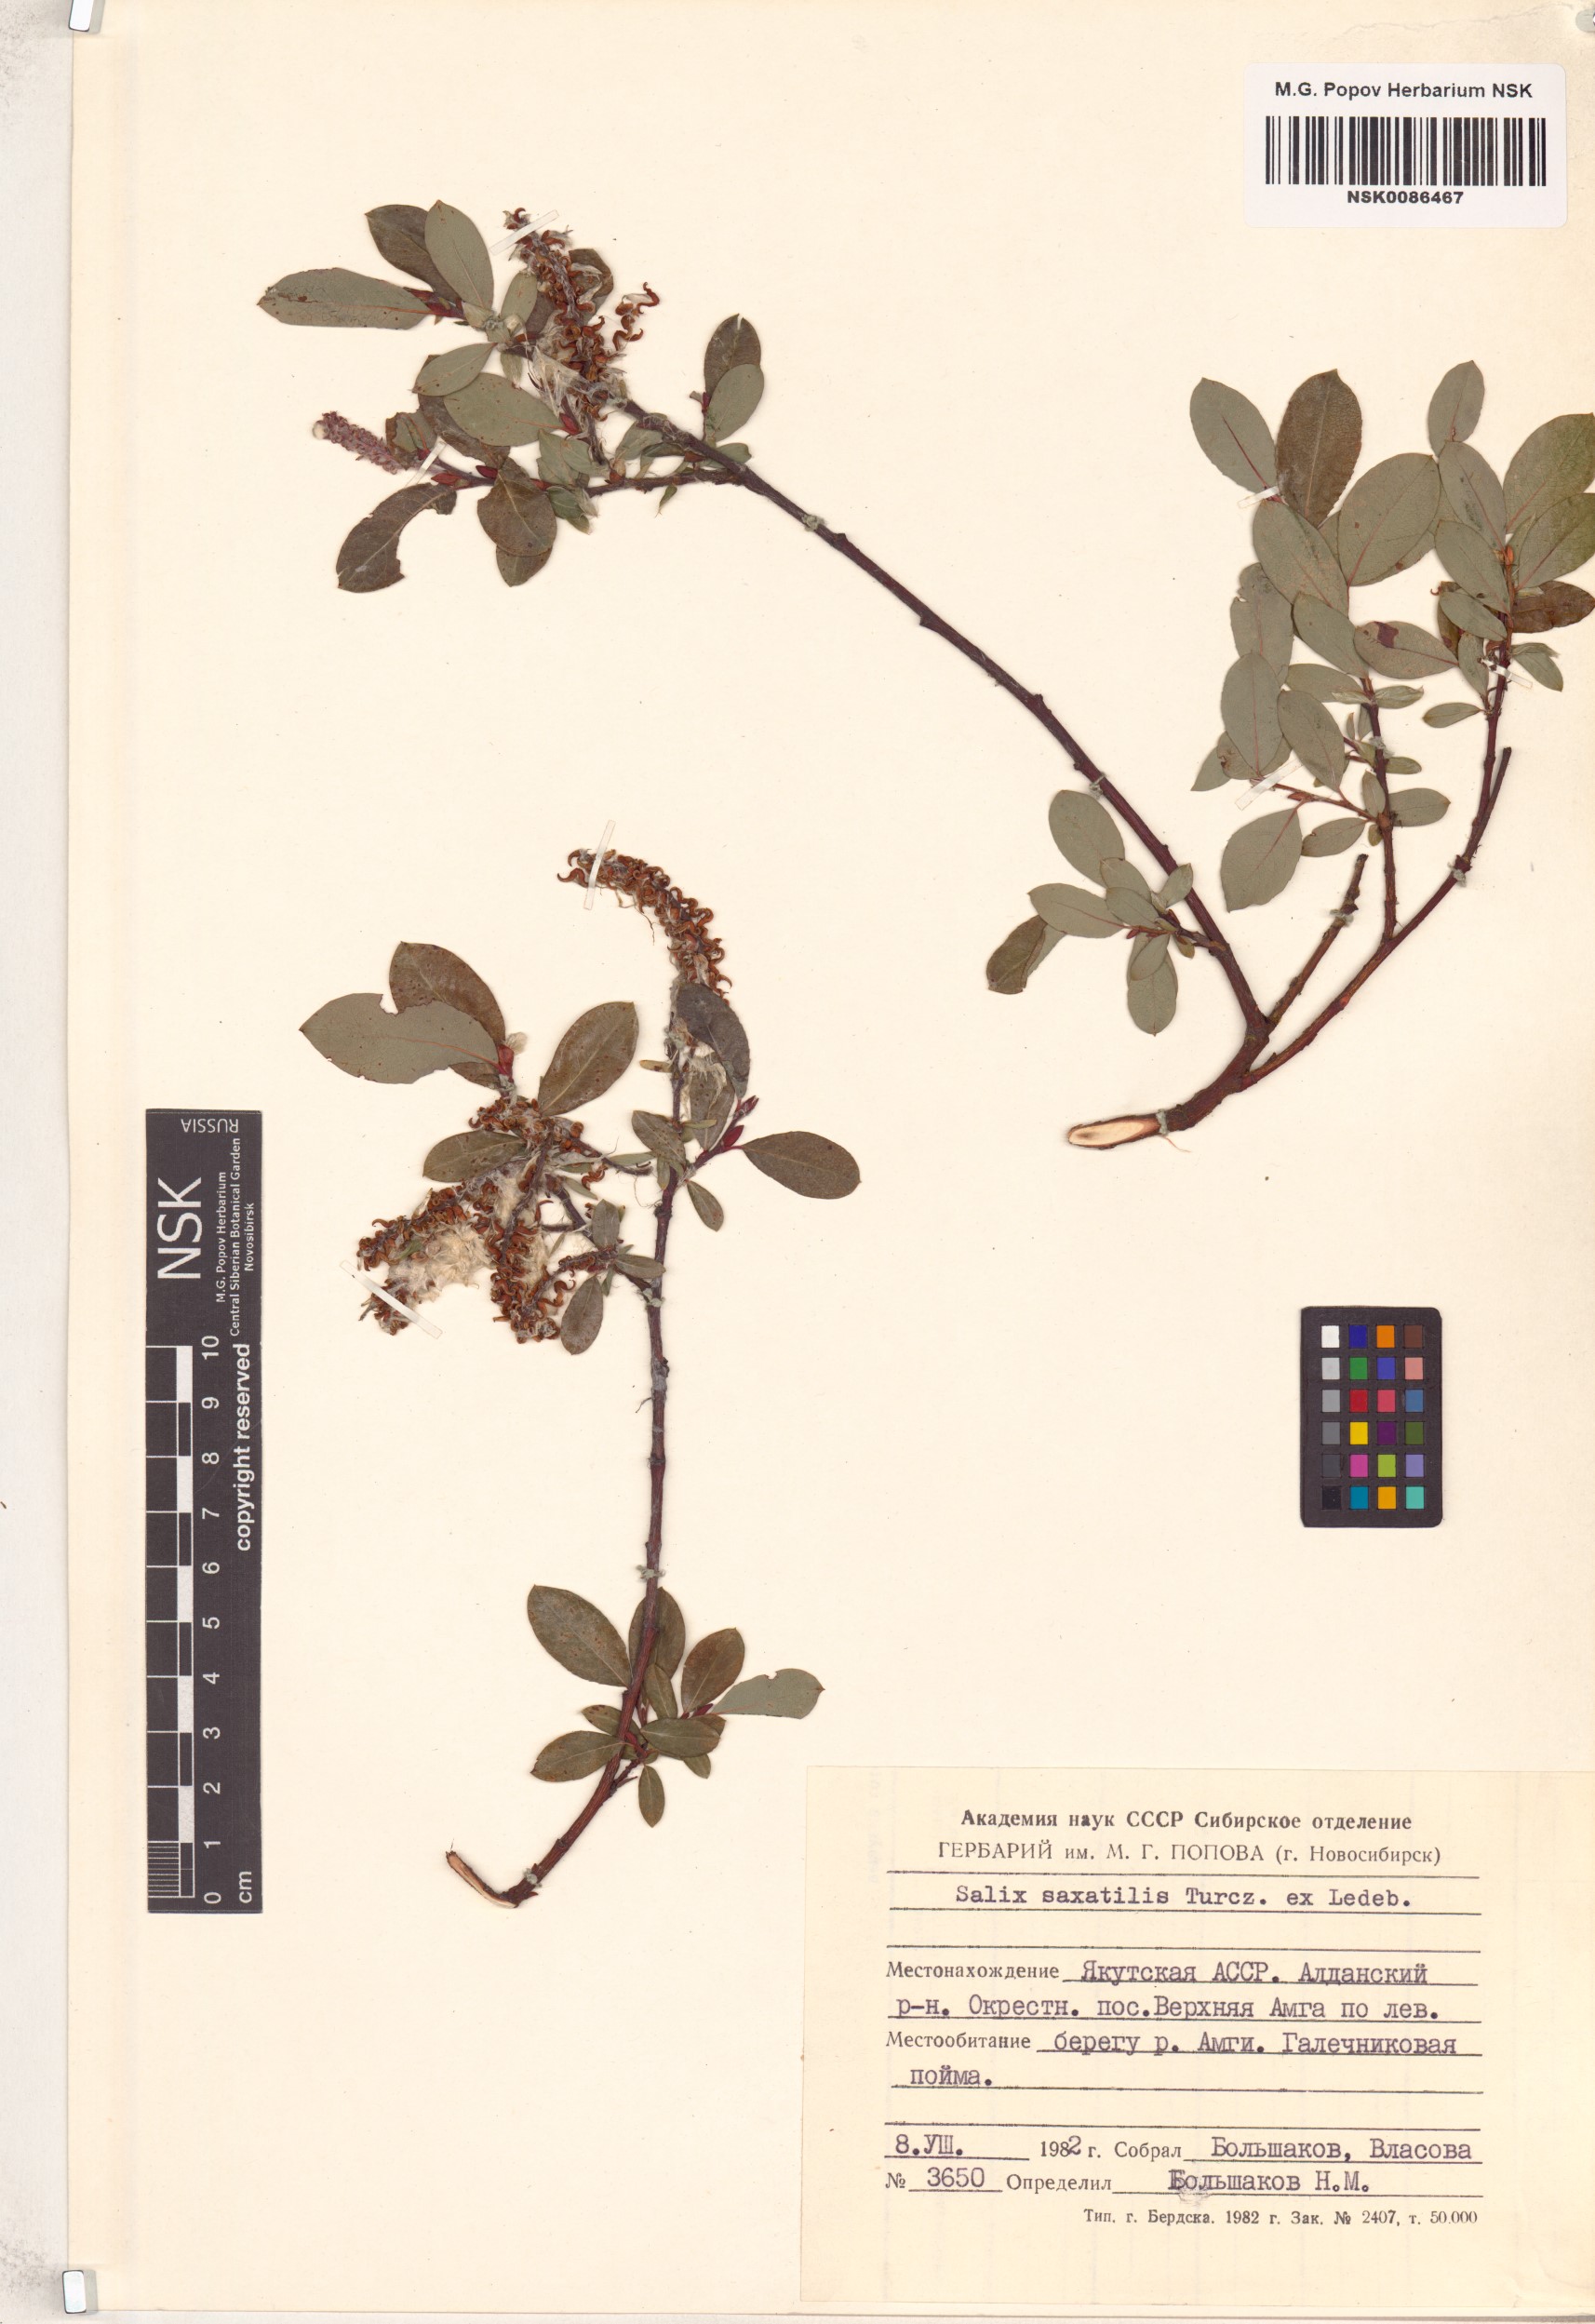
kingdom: Plantae
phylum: Tracheophyta
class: Magnoliopsida
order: Malpighiales
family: Salicaceae
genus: Salix
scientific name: Salix saxatilis
